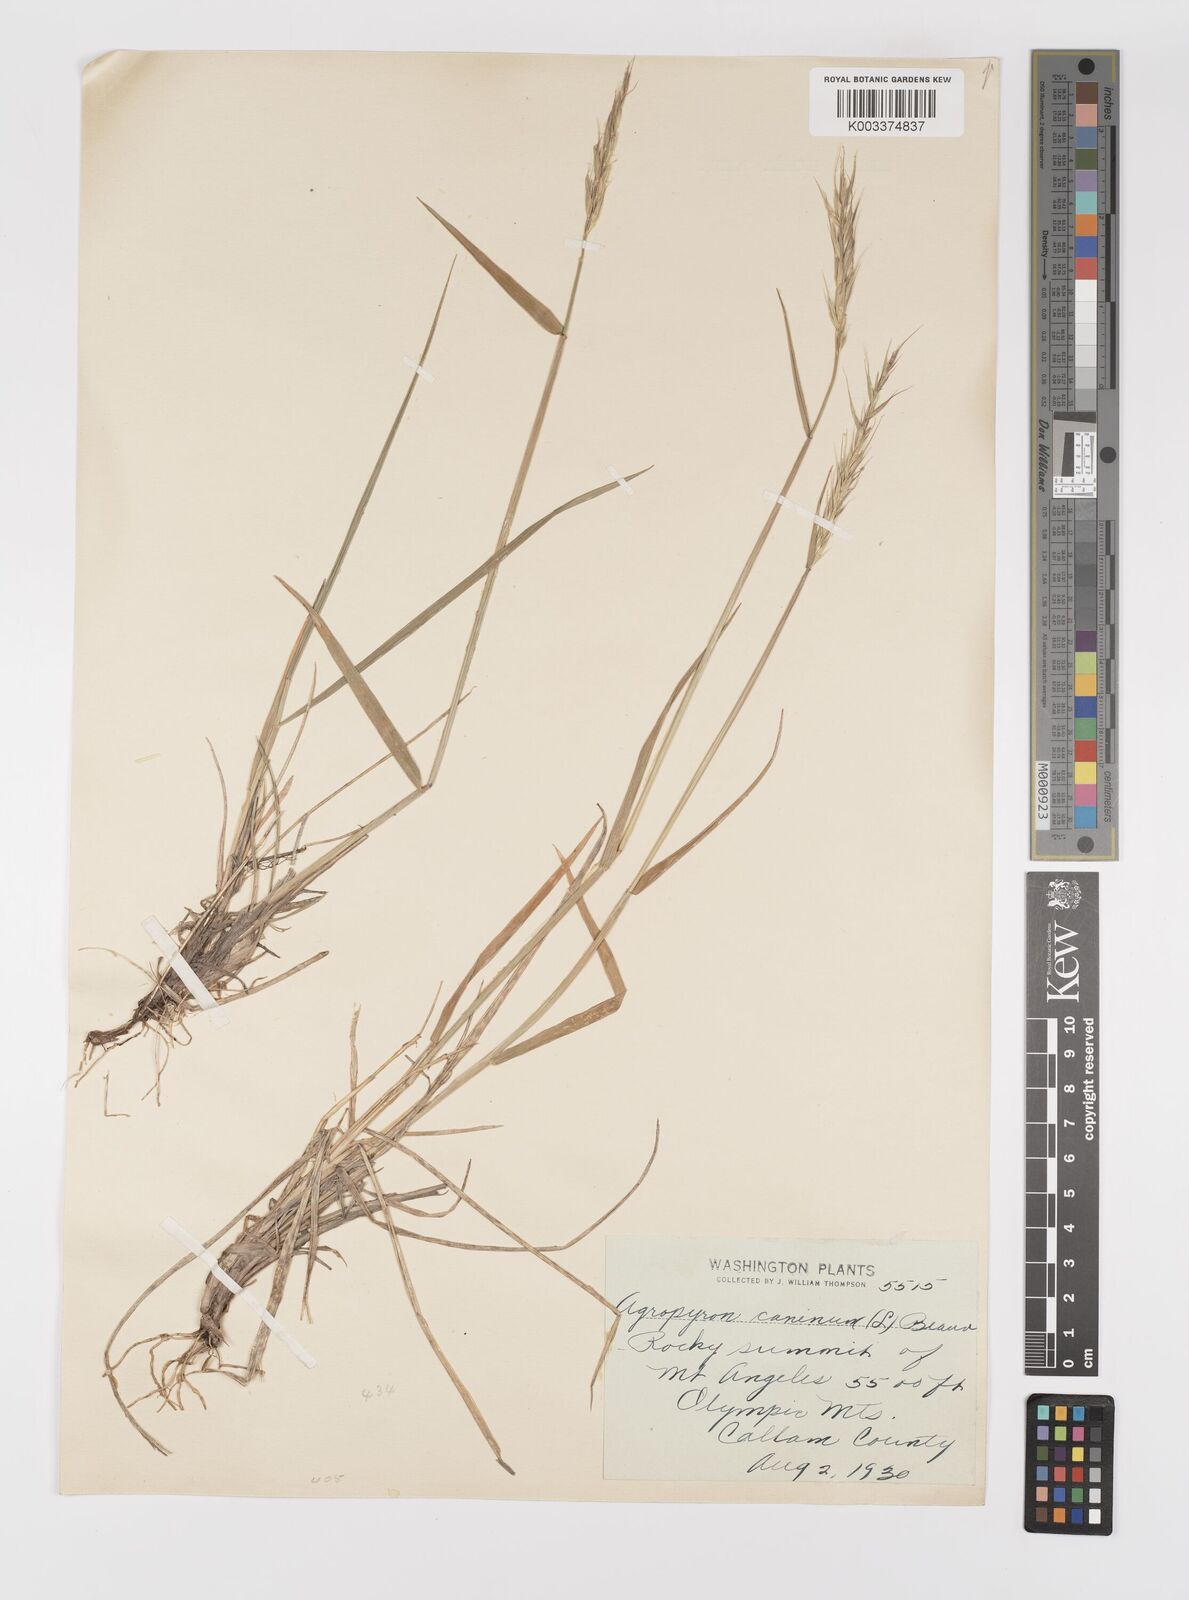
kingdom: Plantae
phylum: Tracheophyta
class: Liliopsida
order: Poales
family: Poaceae
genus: Elymus
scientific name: Elymus violaceus
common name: Arctic wheatgrass
